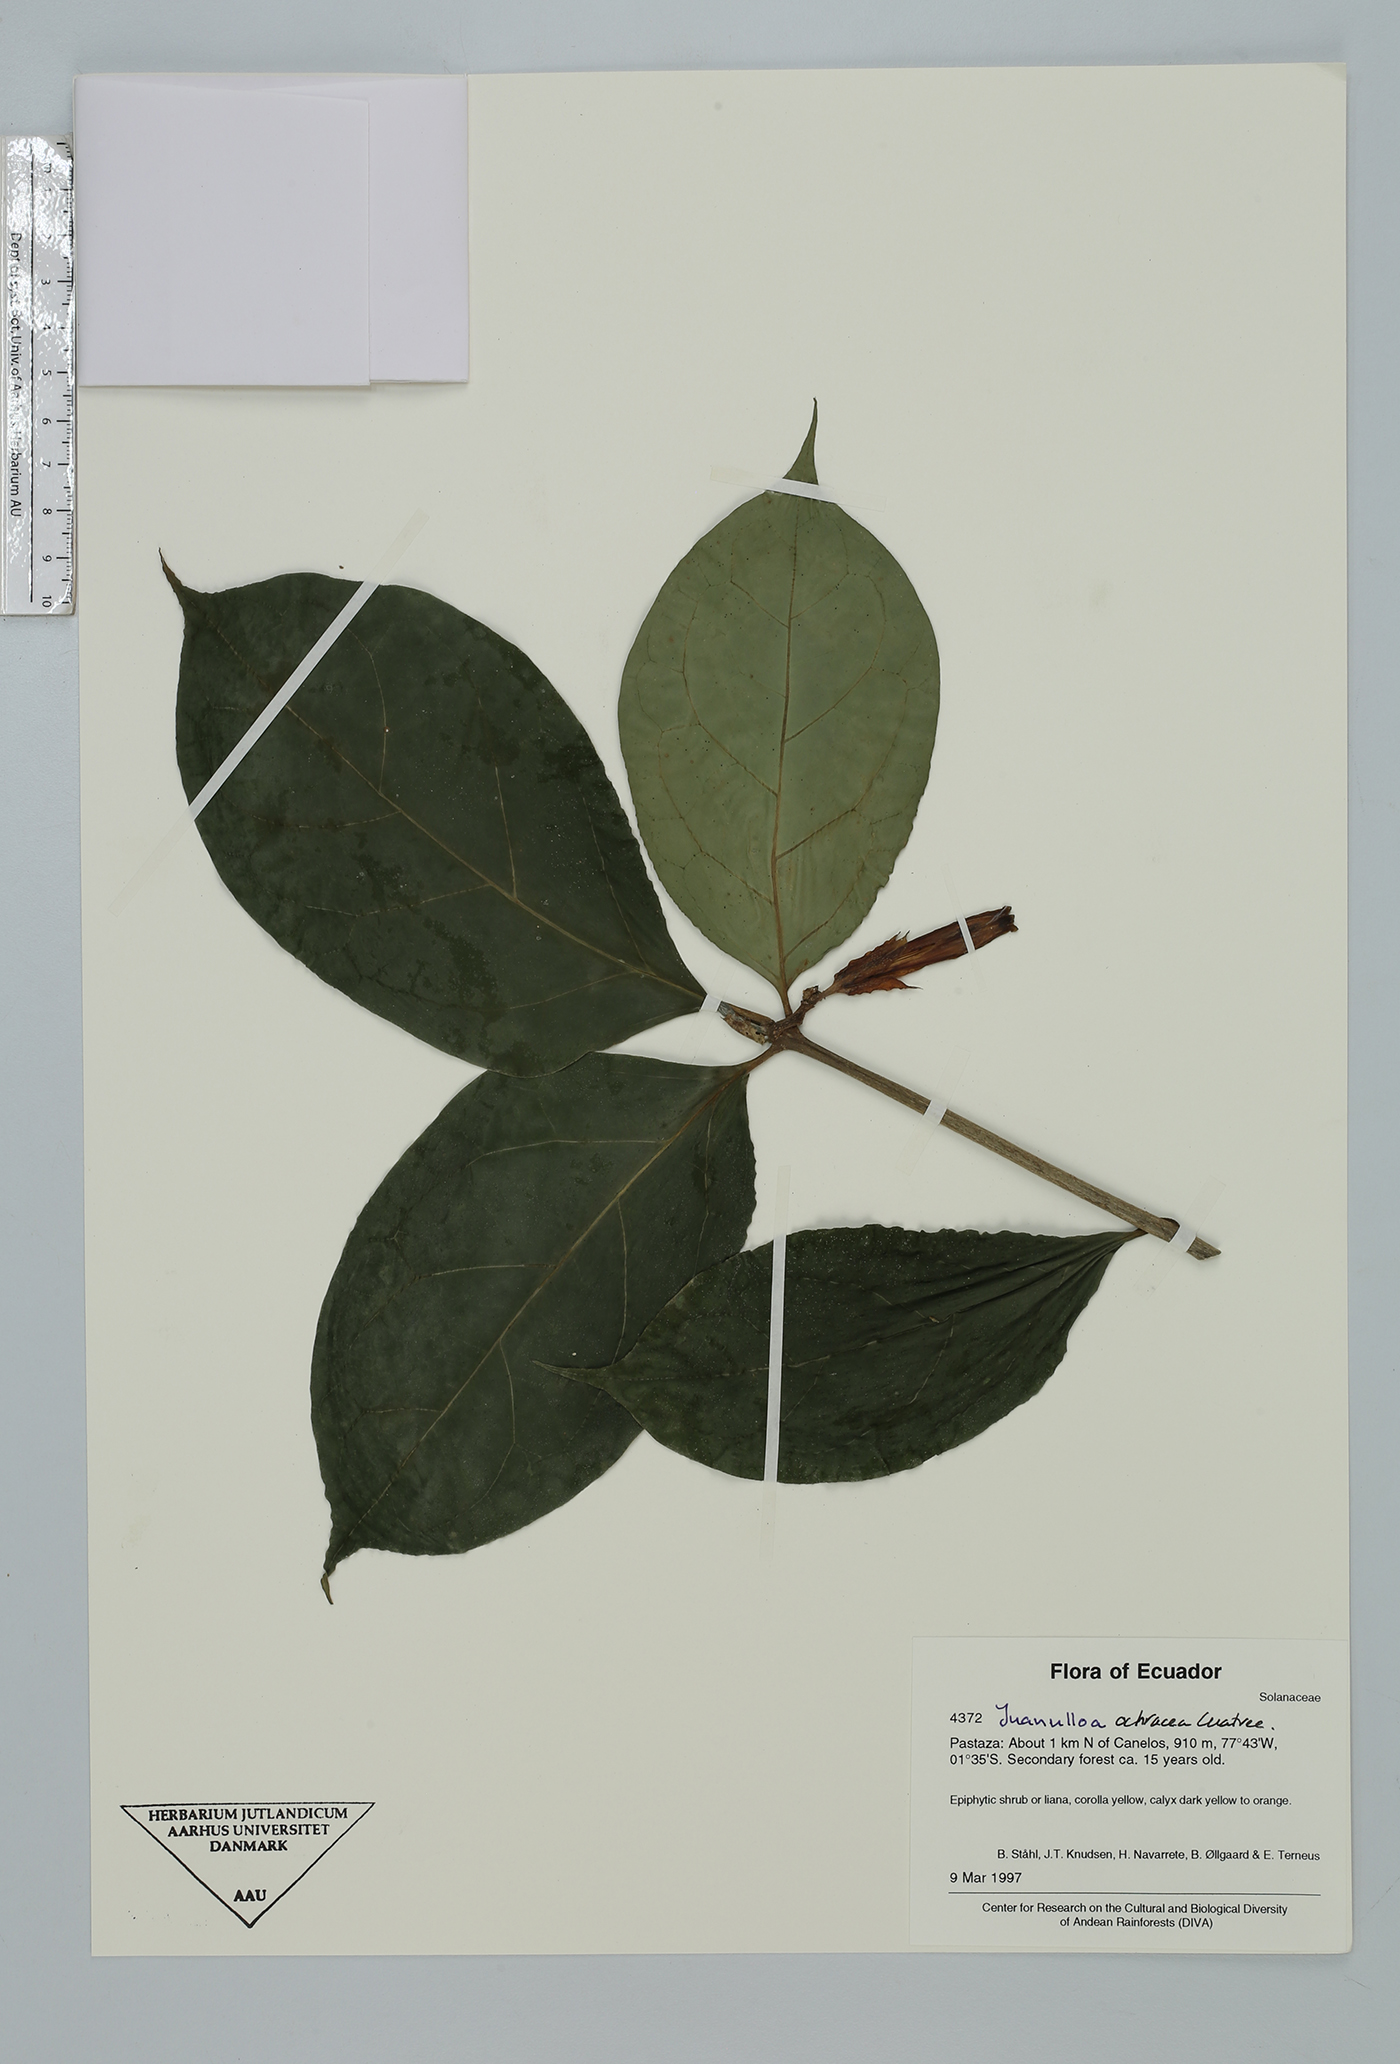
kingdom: Plantae
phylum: Tracheophyta
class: Magnoliopsida
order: Solanales
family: Solanaceae
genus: Hawkesiophyton
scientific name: Hawkesiophyton ochraceum
